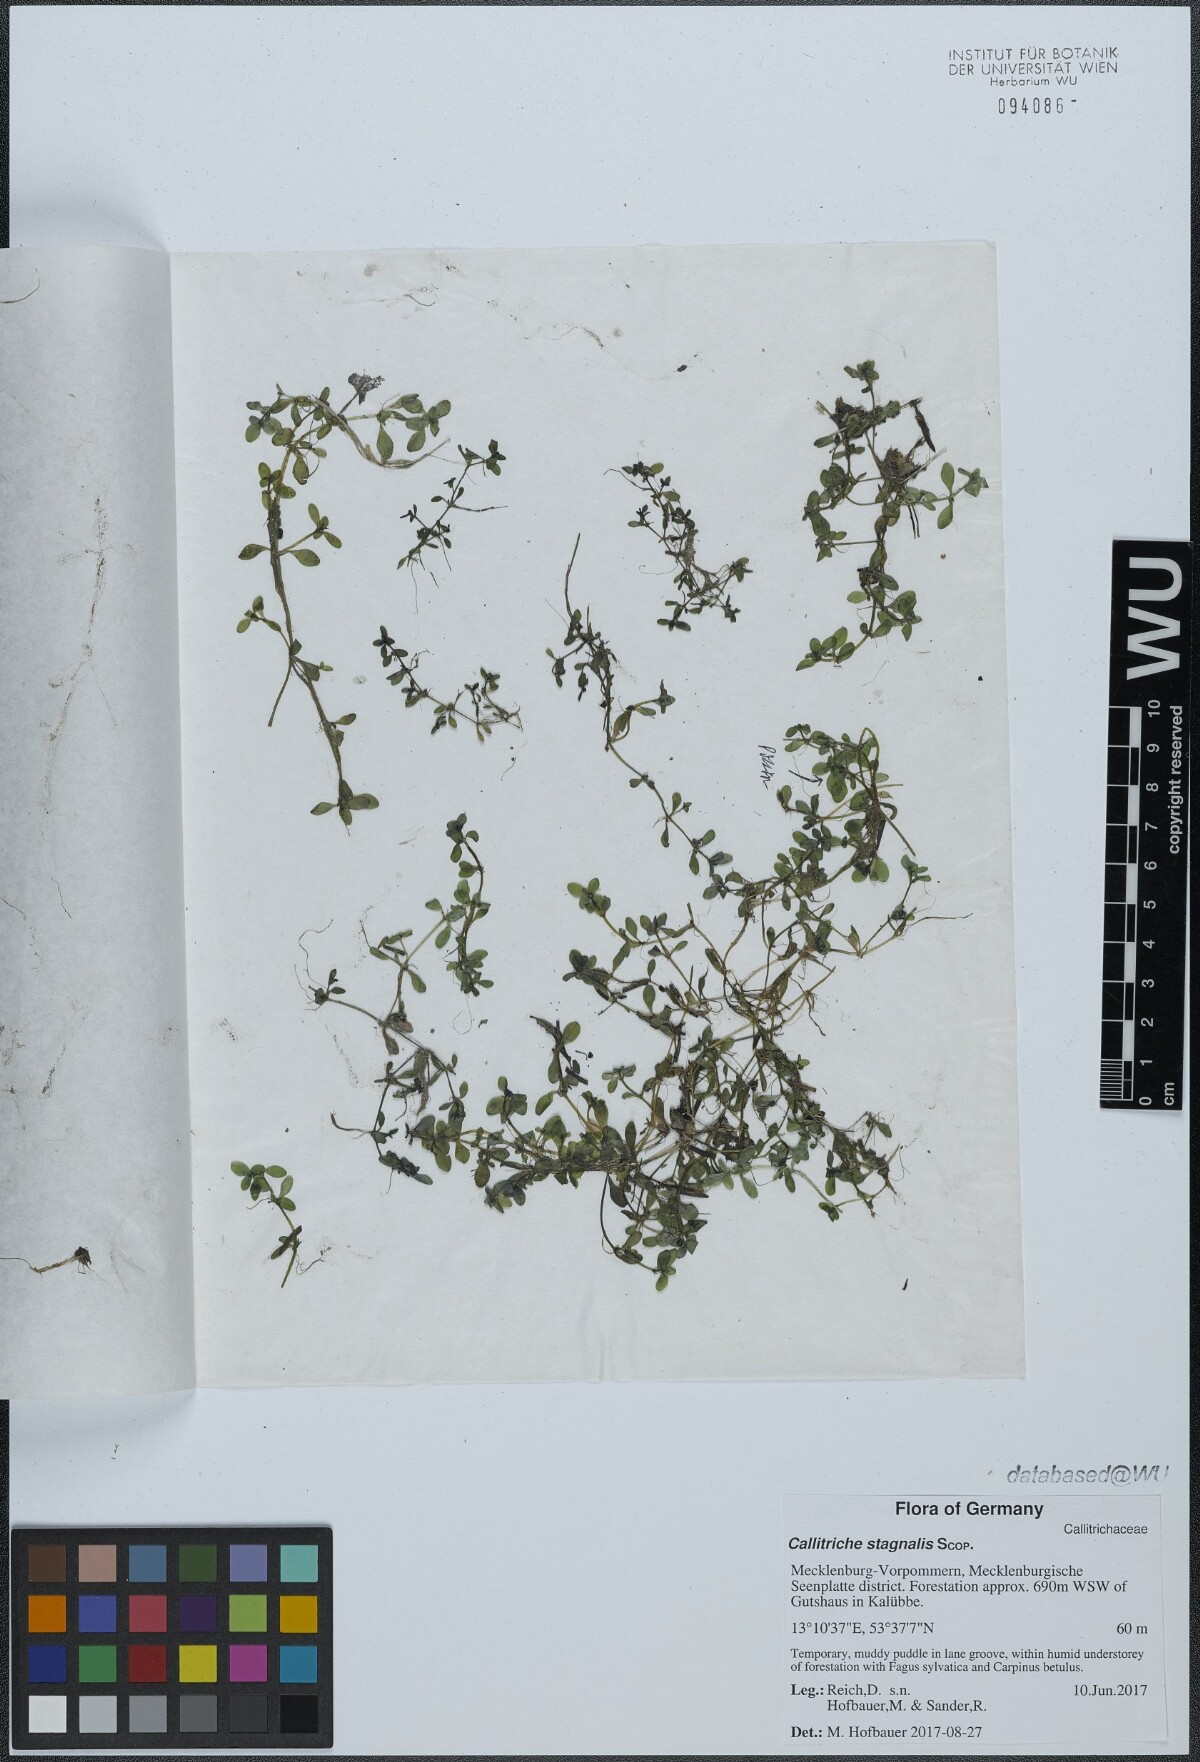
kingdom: Plantae
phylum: Tracheophyta
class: Magnoliopsida
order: Lamiales
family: Plantaginaceae
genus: Callitriche
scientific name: Callitriche stagnalis
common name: Common water-starwort
